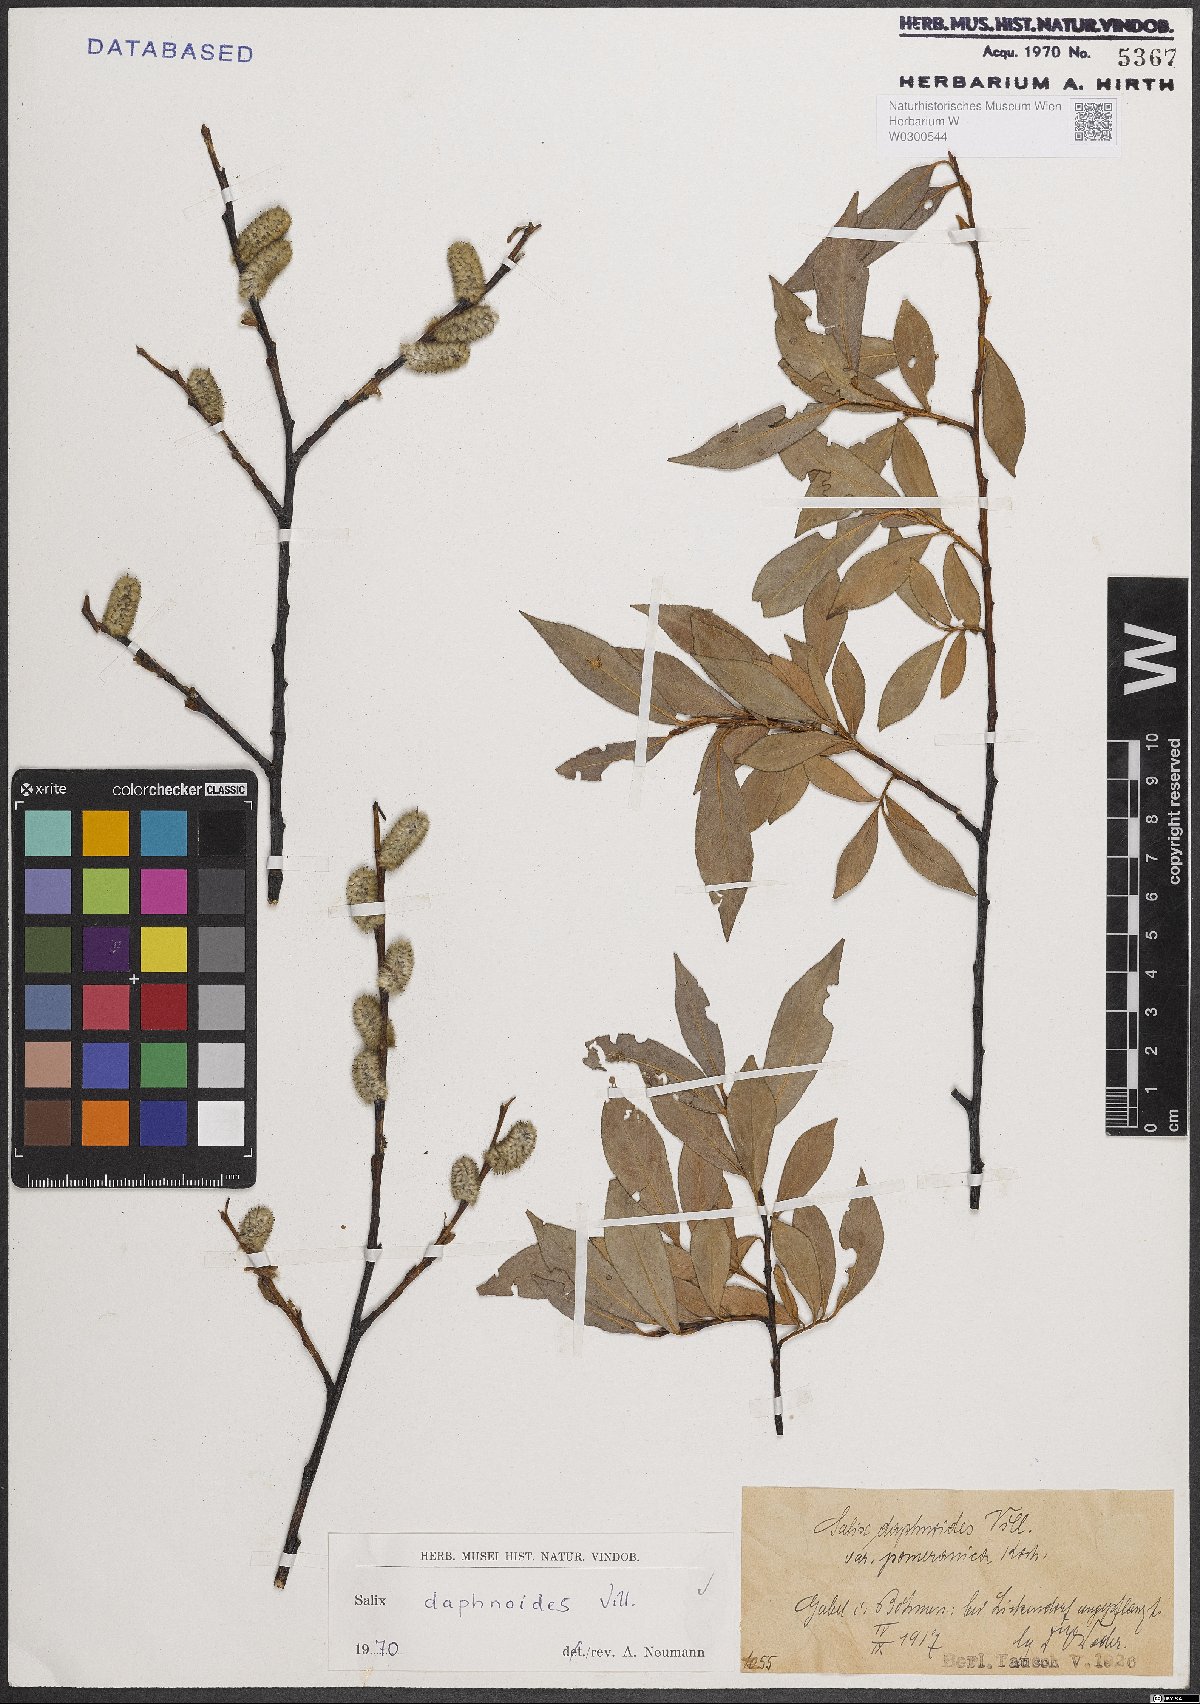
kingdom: Plantae
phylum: Tracheophyta
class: Magnoliopsida
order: Malpighiales
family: Salicaceae
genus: Salix
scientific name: Salix daphnoides
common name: European violet-willow
